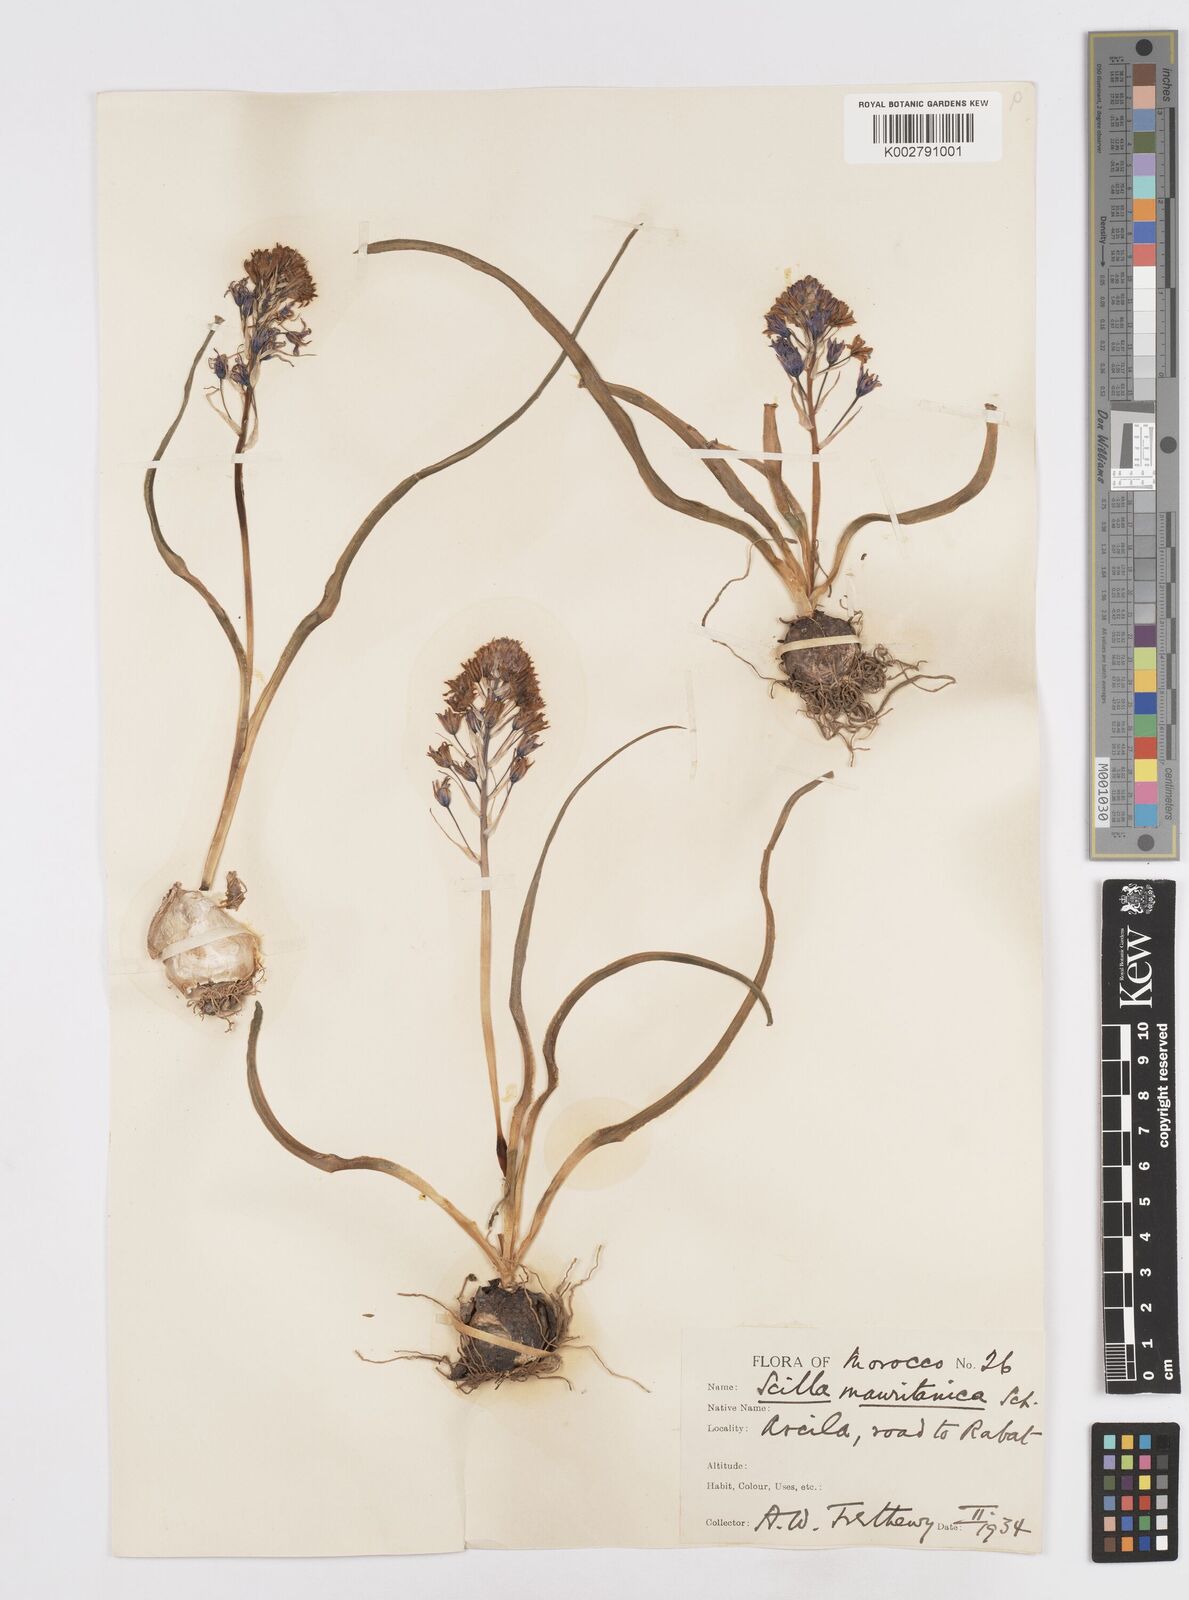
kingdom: Plantae
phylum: Tracheophyta
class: Liliopsida
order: Asparagales
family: Asparagaceae
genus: Hyacinthoides
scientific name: Hyacinthoides mauritanica
